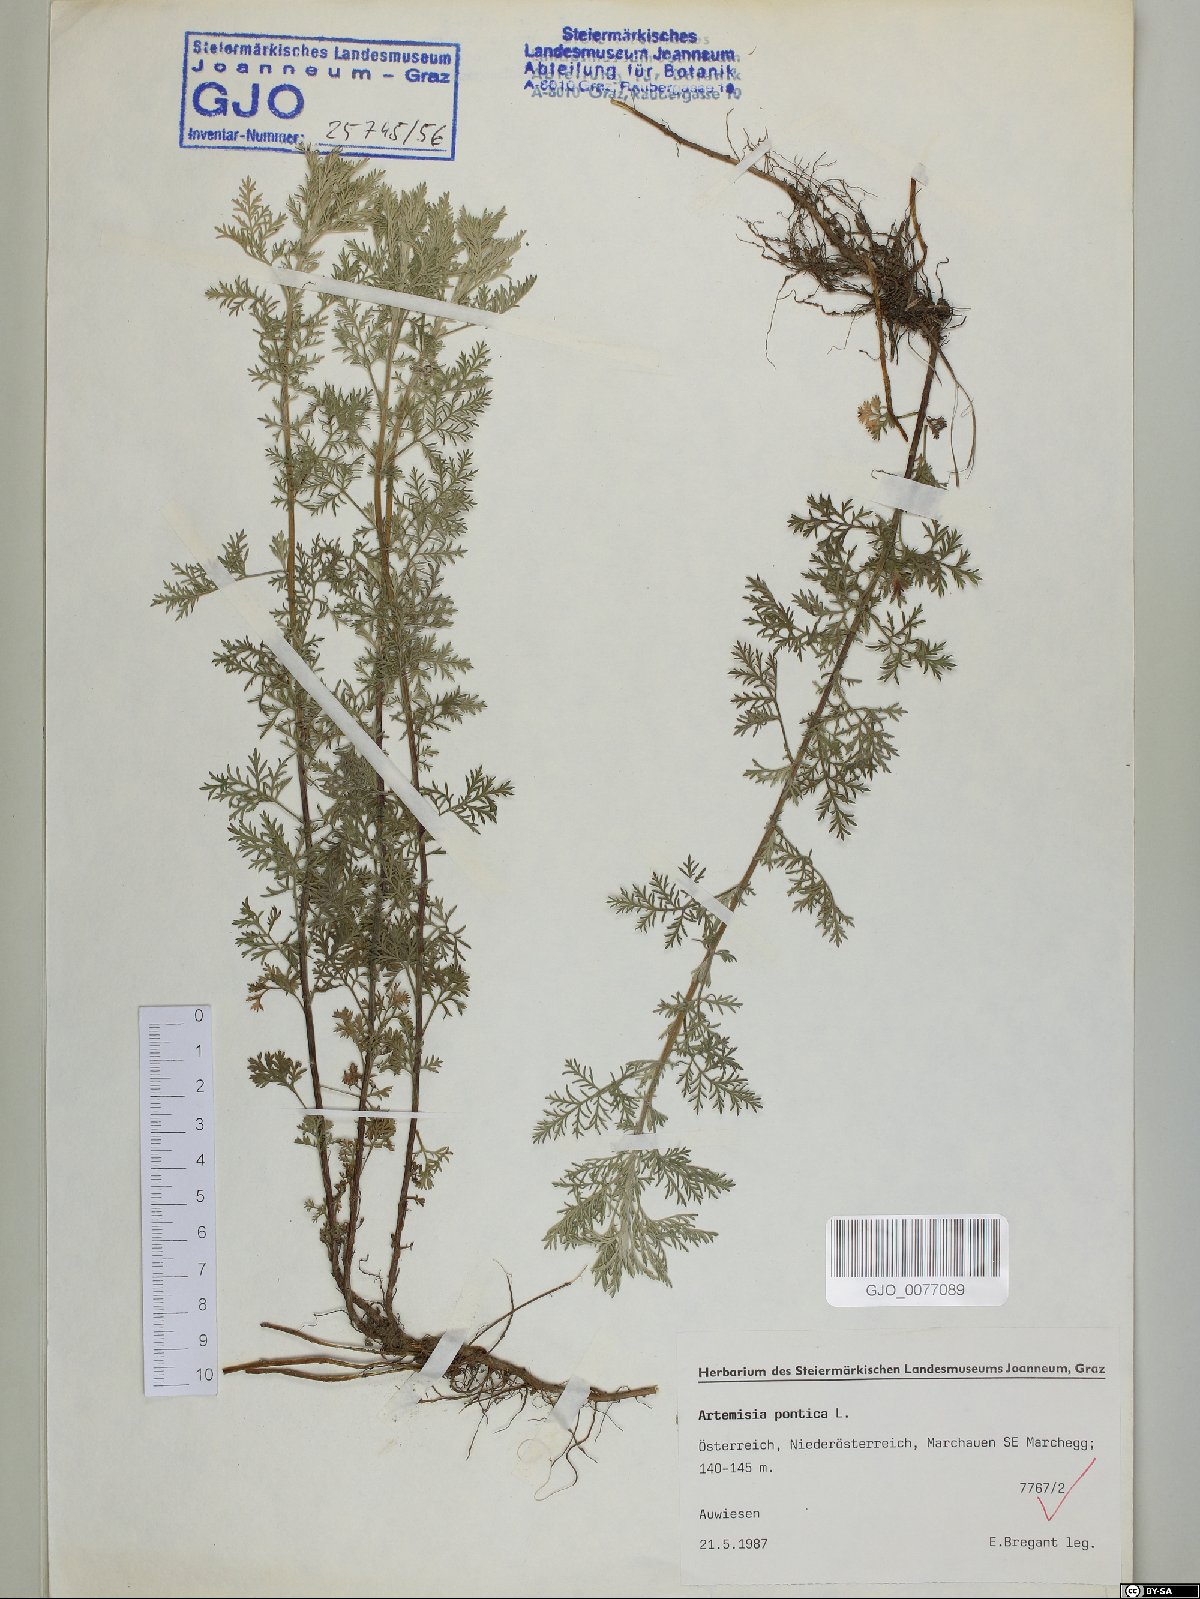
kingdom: Plantae
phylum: Tracheophyta
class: Magnoliopsida
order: Asterales
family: Asteraceae
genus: Artemisia
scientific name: Artemisia pontica
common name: Roman wormwood
